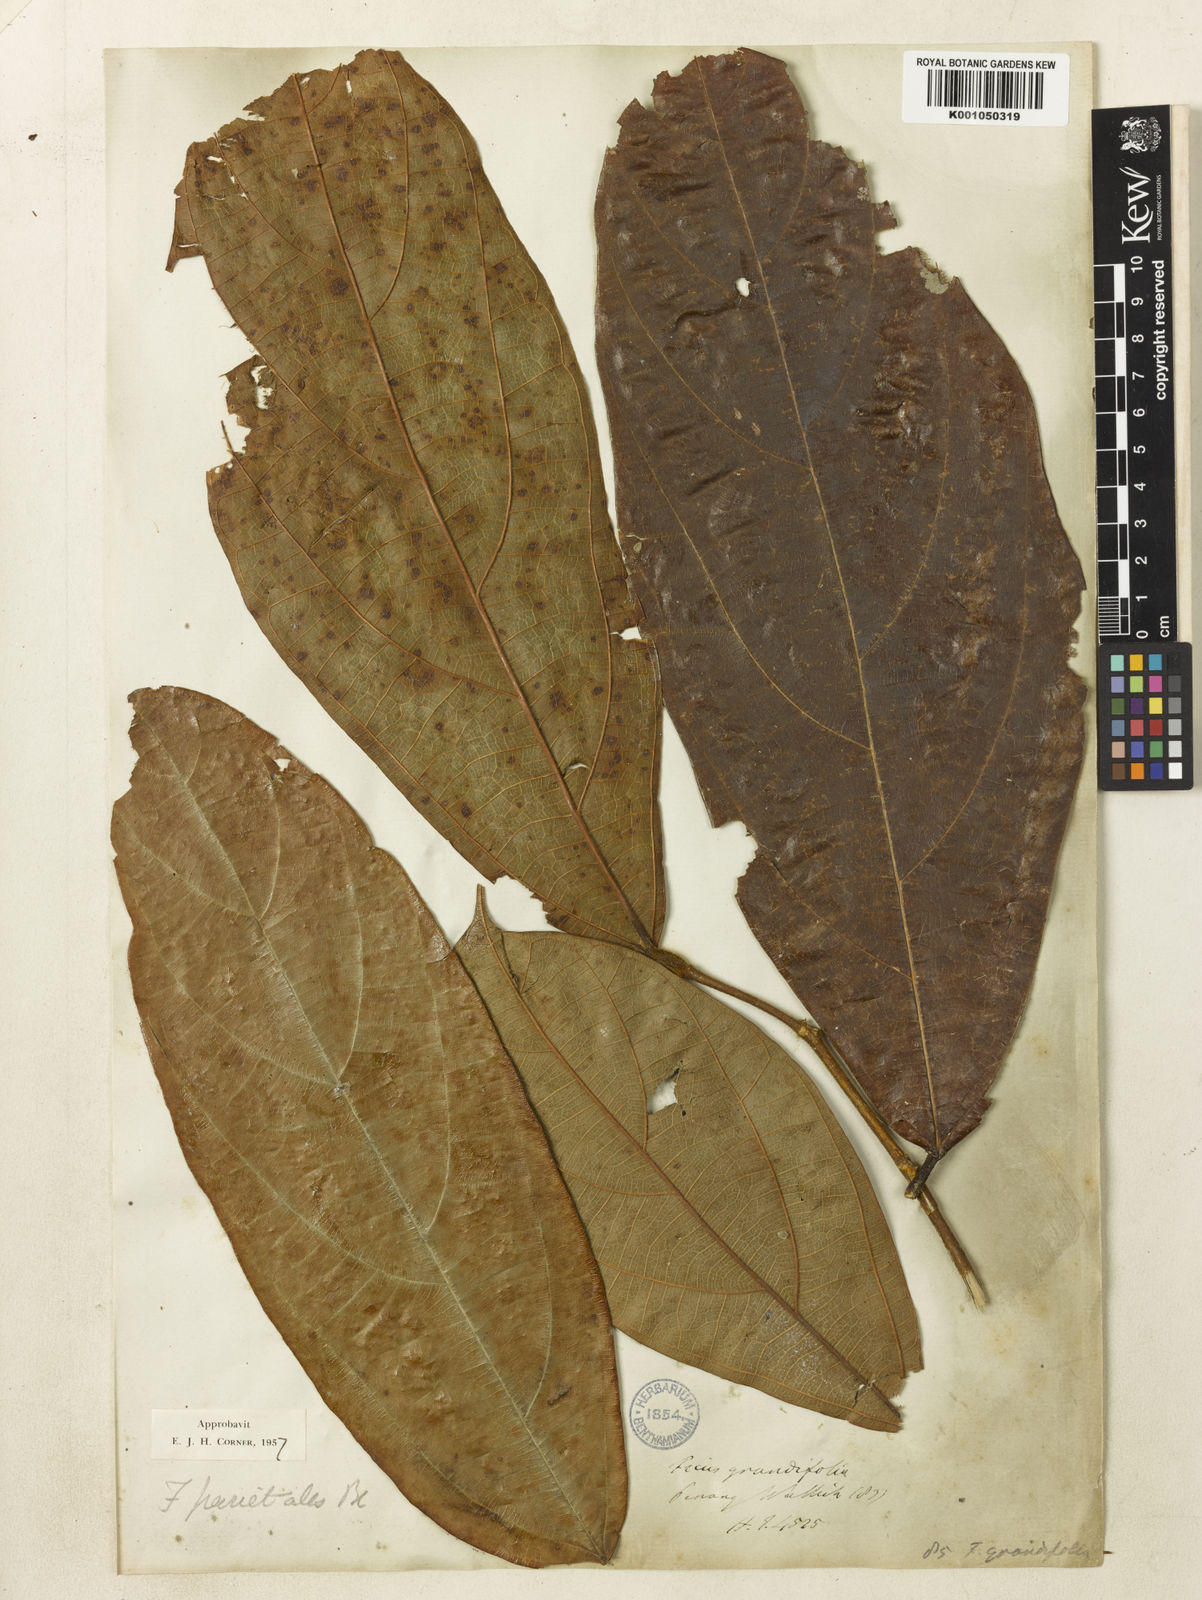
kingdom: Plantae
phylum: Tracheophyta
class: Magnoliopsida
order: Rosales
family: Moraceae
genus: Ficus
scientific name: Ficus parietalis
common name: Sharp fig
